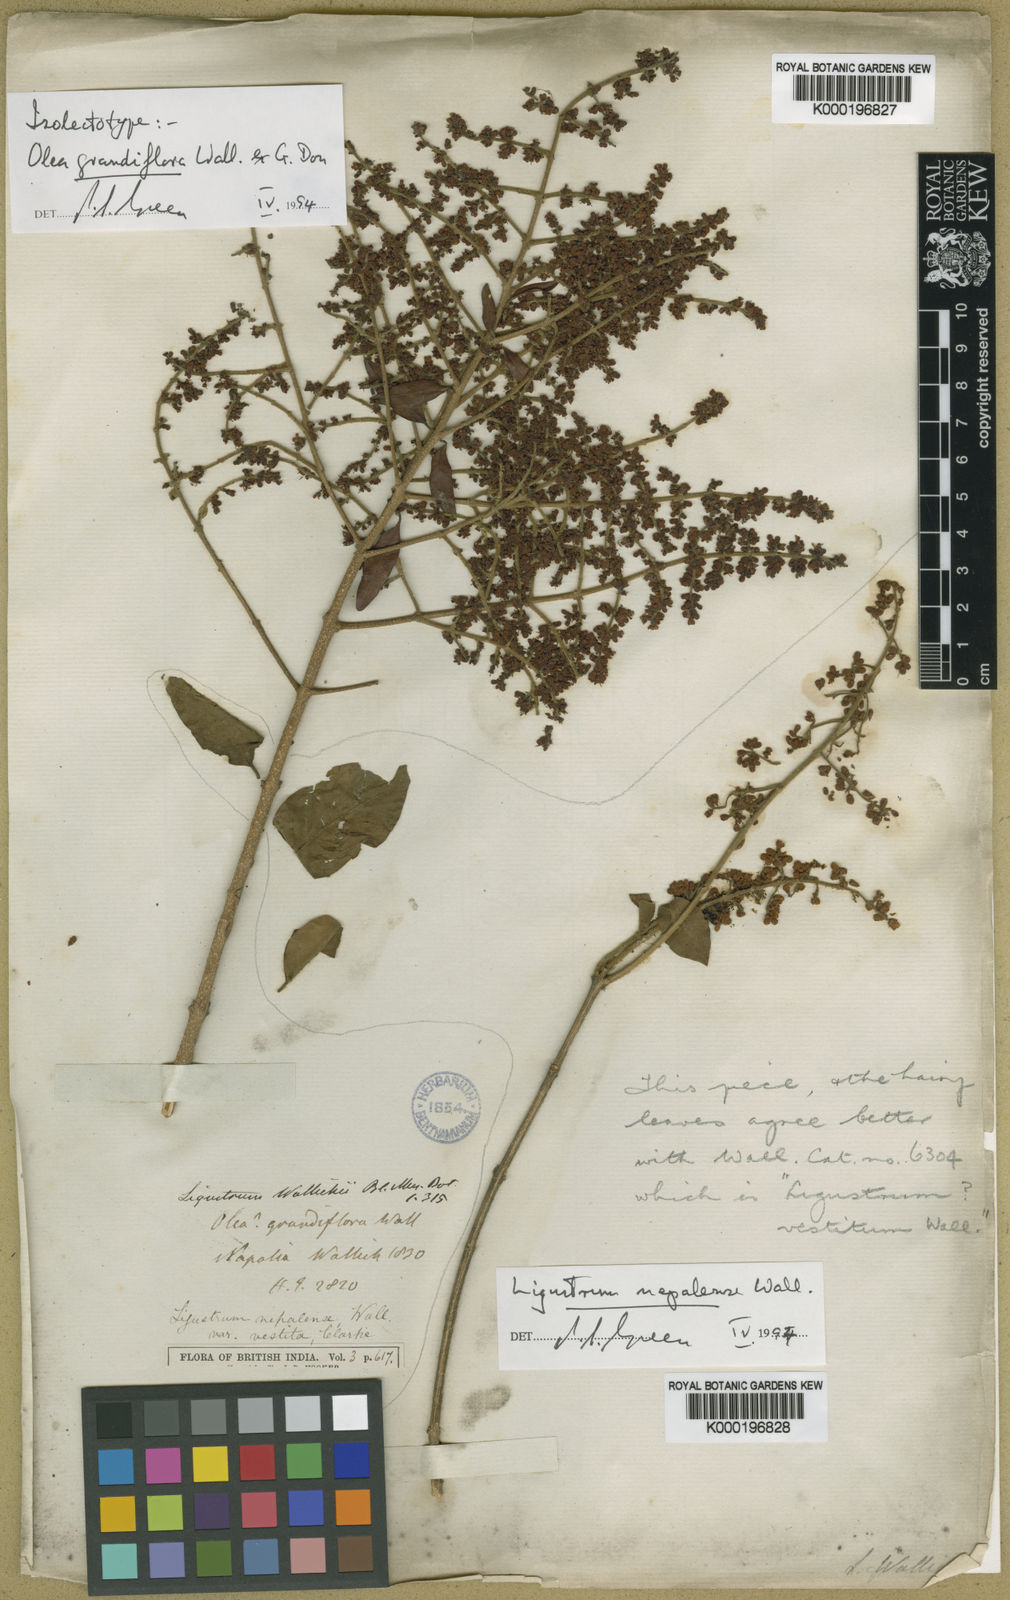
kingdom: Plantae
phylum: Tracheophyta
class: Magnoliopsida
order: Lamiales
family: Oleaceae
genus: Ligustrum
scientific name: Ligustrum nepalense
